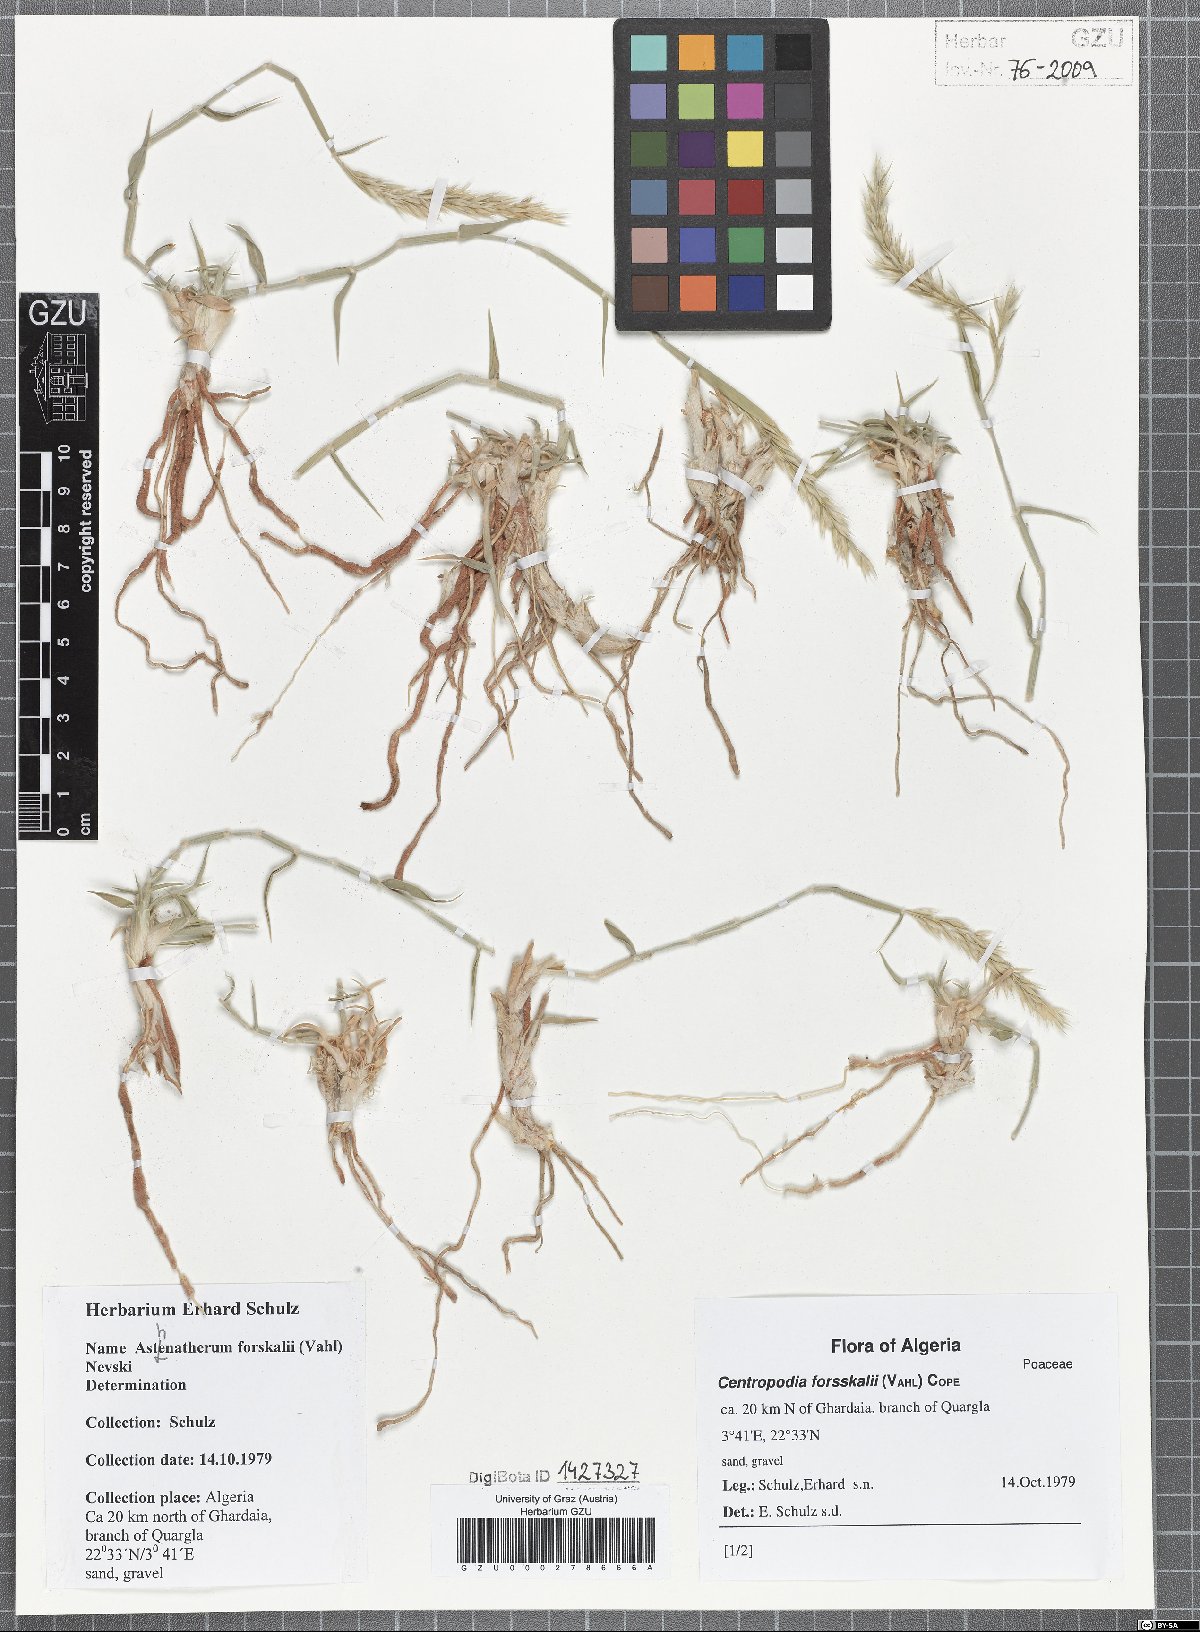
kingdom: Plantae
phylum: Tracheophyta
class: Liliopsida
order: Poales
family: Poaceae
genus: Centropodia
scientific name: Centropodia forsskalii
